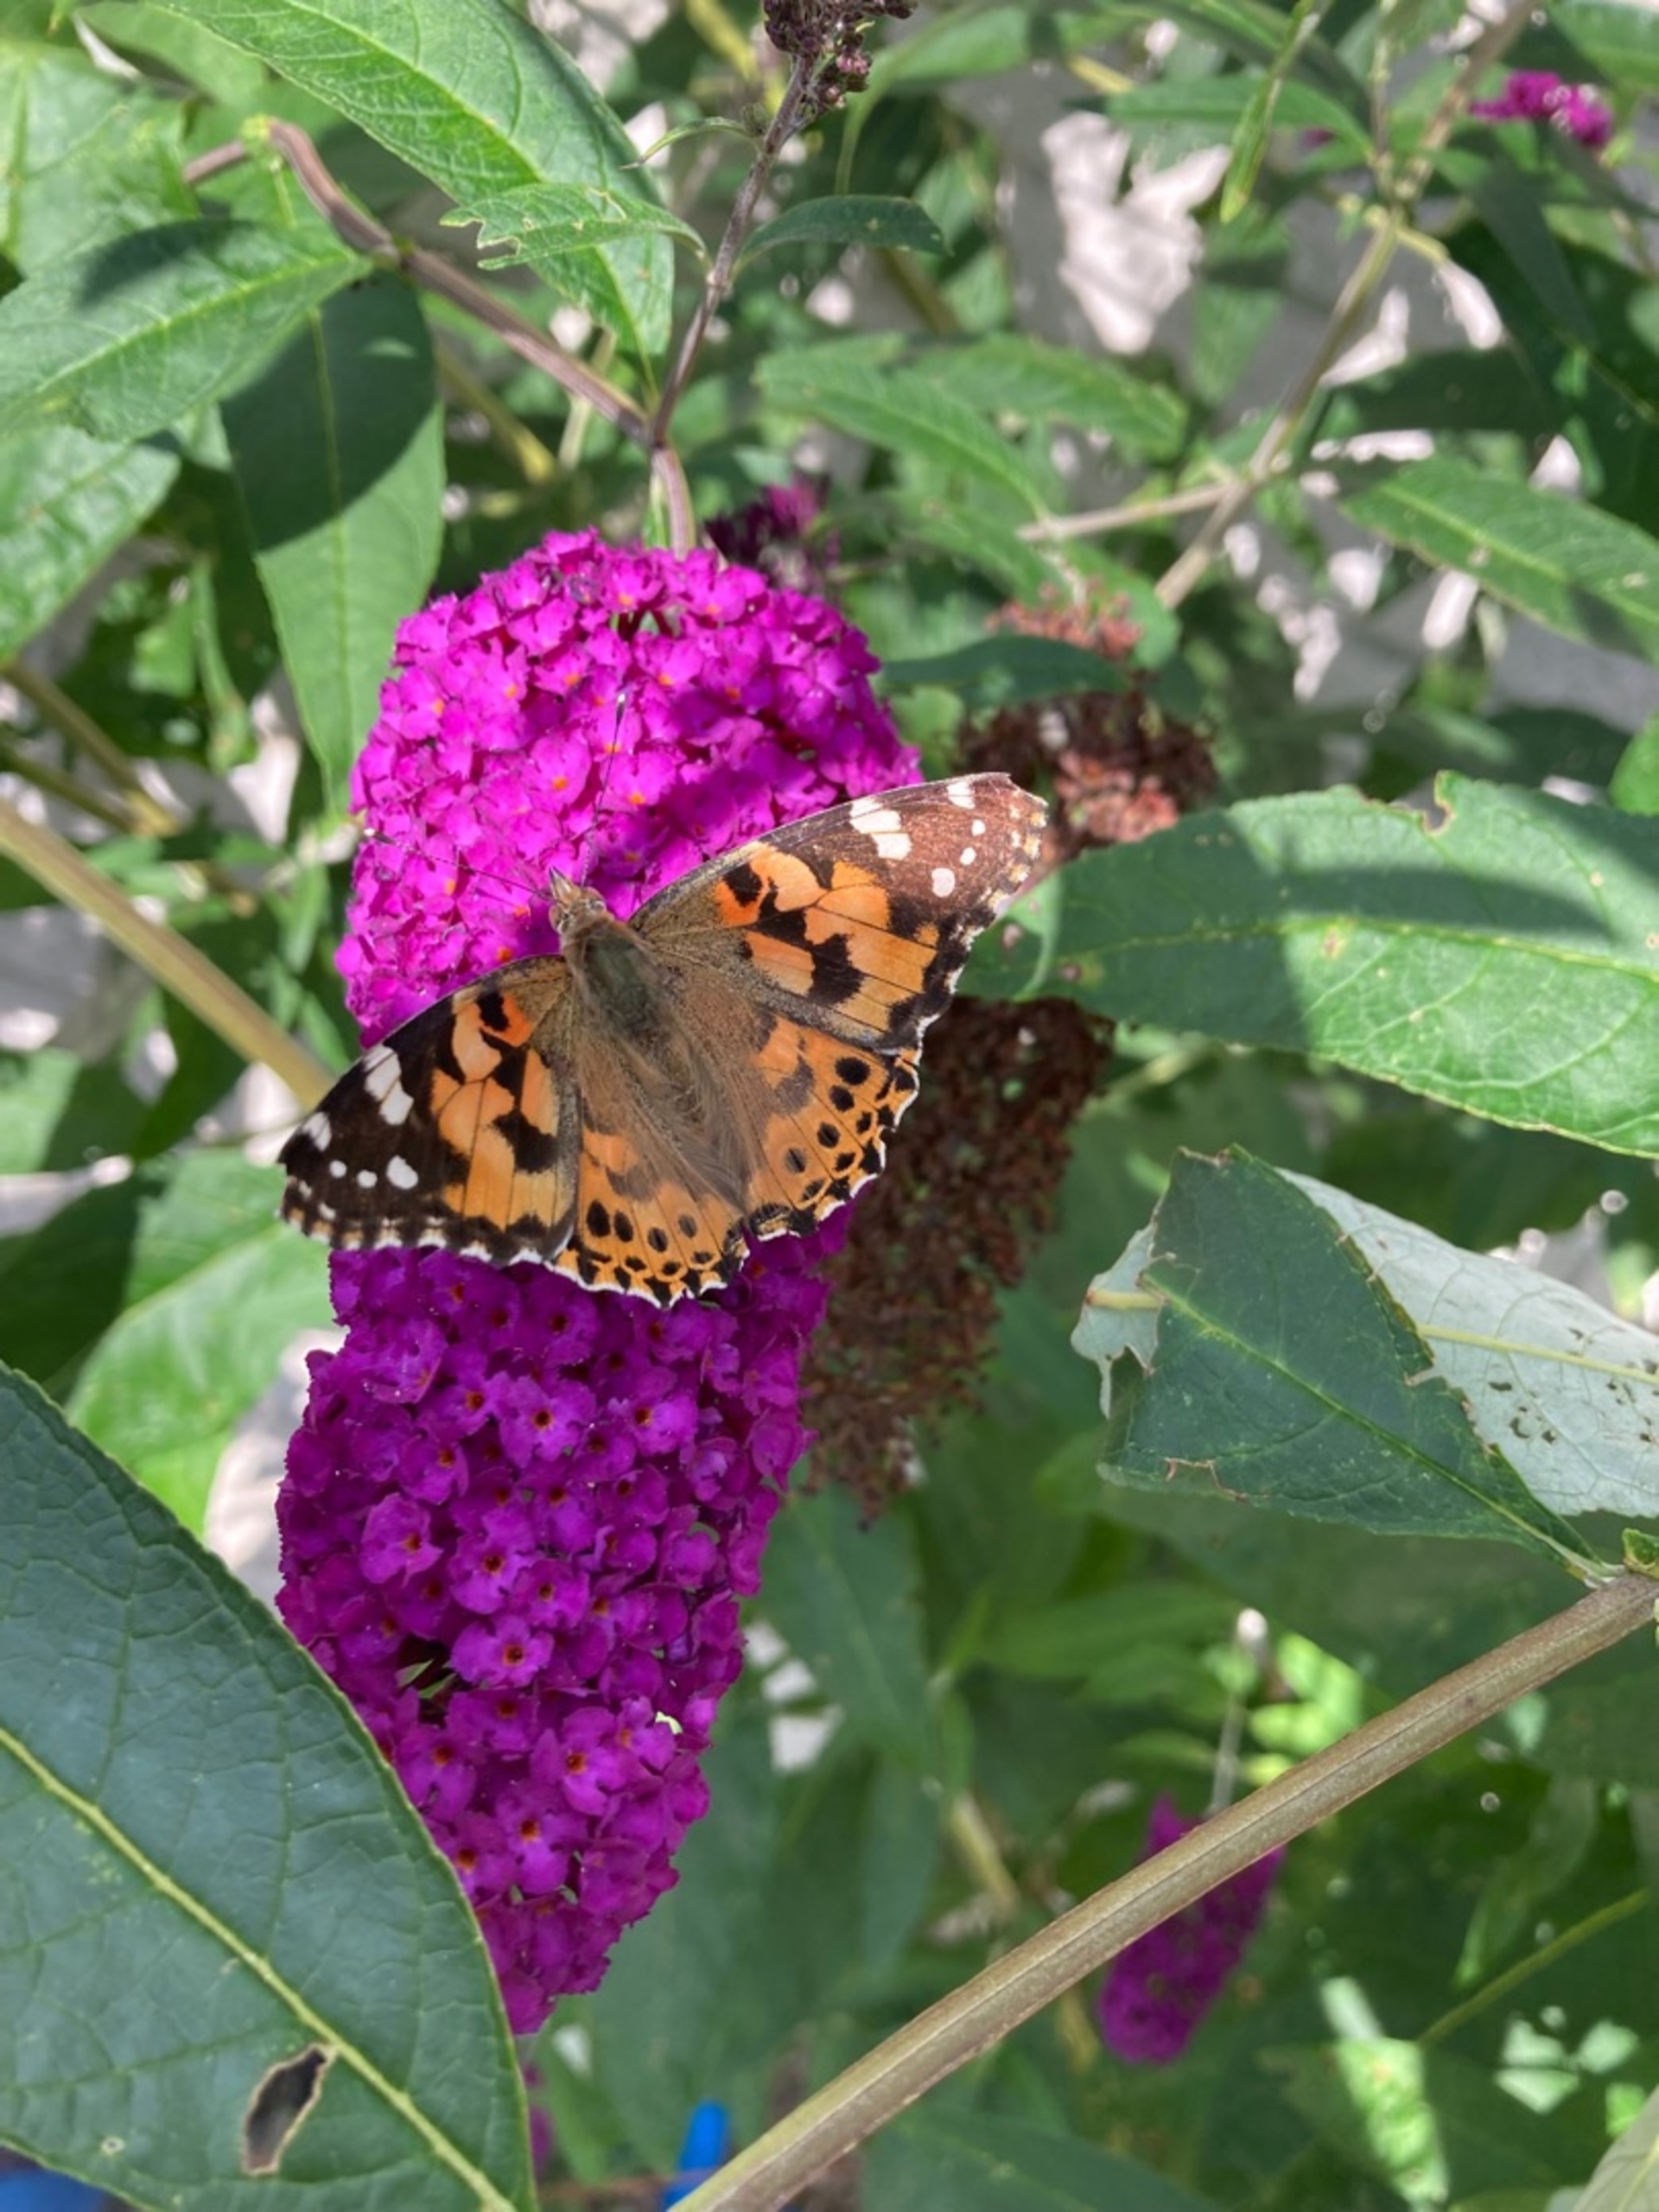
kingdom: Animalia
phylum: Arthropoda
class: Insecta
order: Lepidoptera
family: Nymphalidae
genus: Vanessa
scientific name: Vanessa cardui
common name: Tidselsommerfugl
